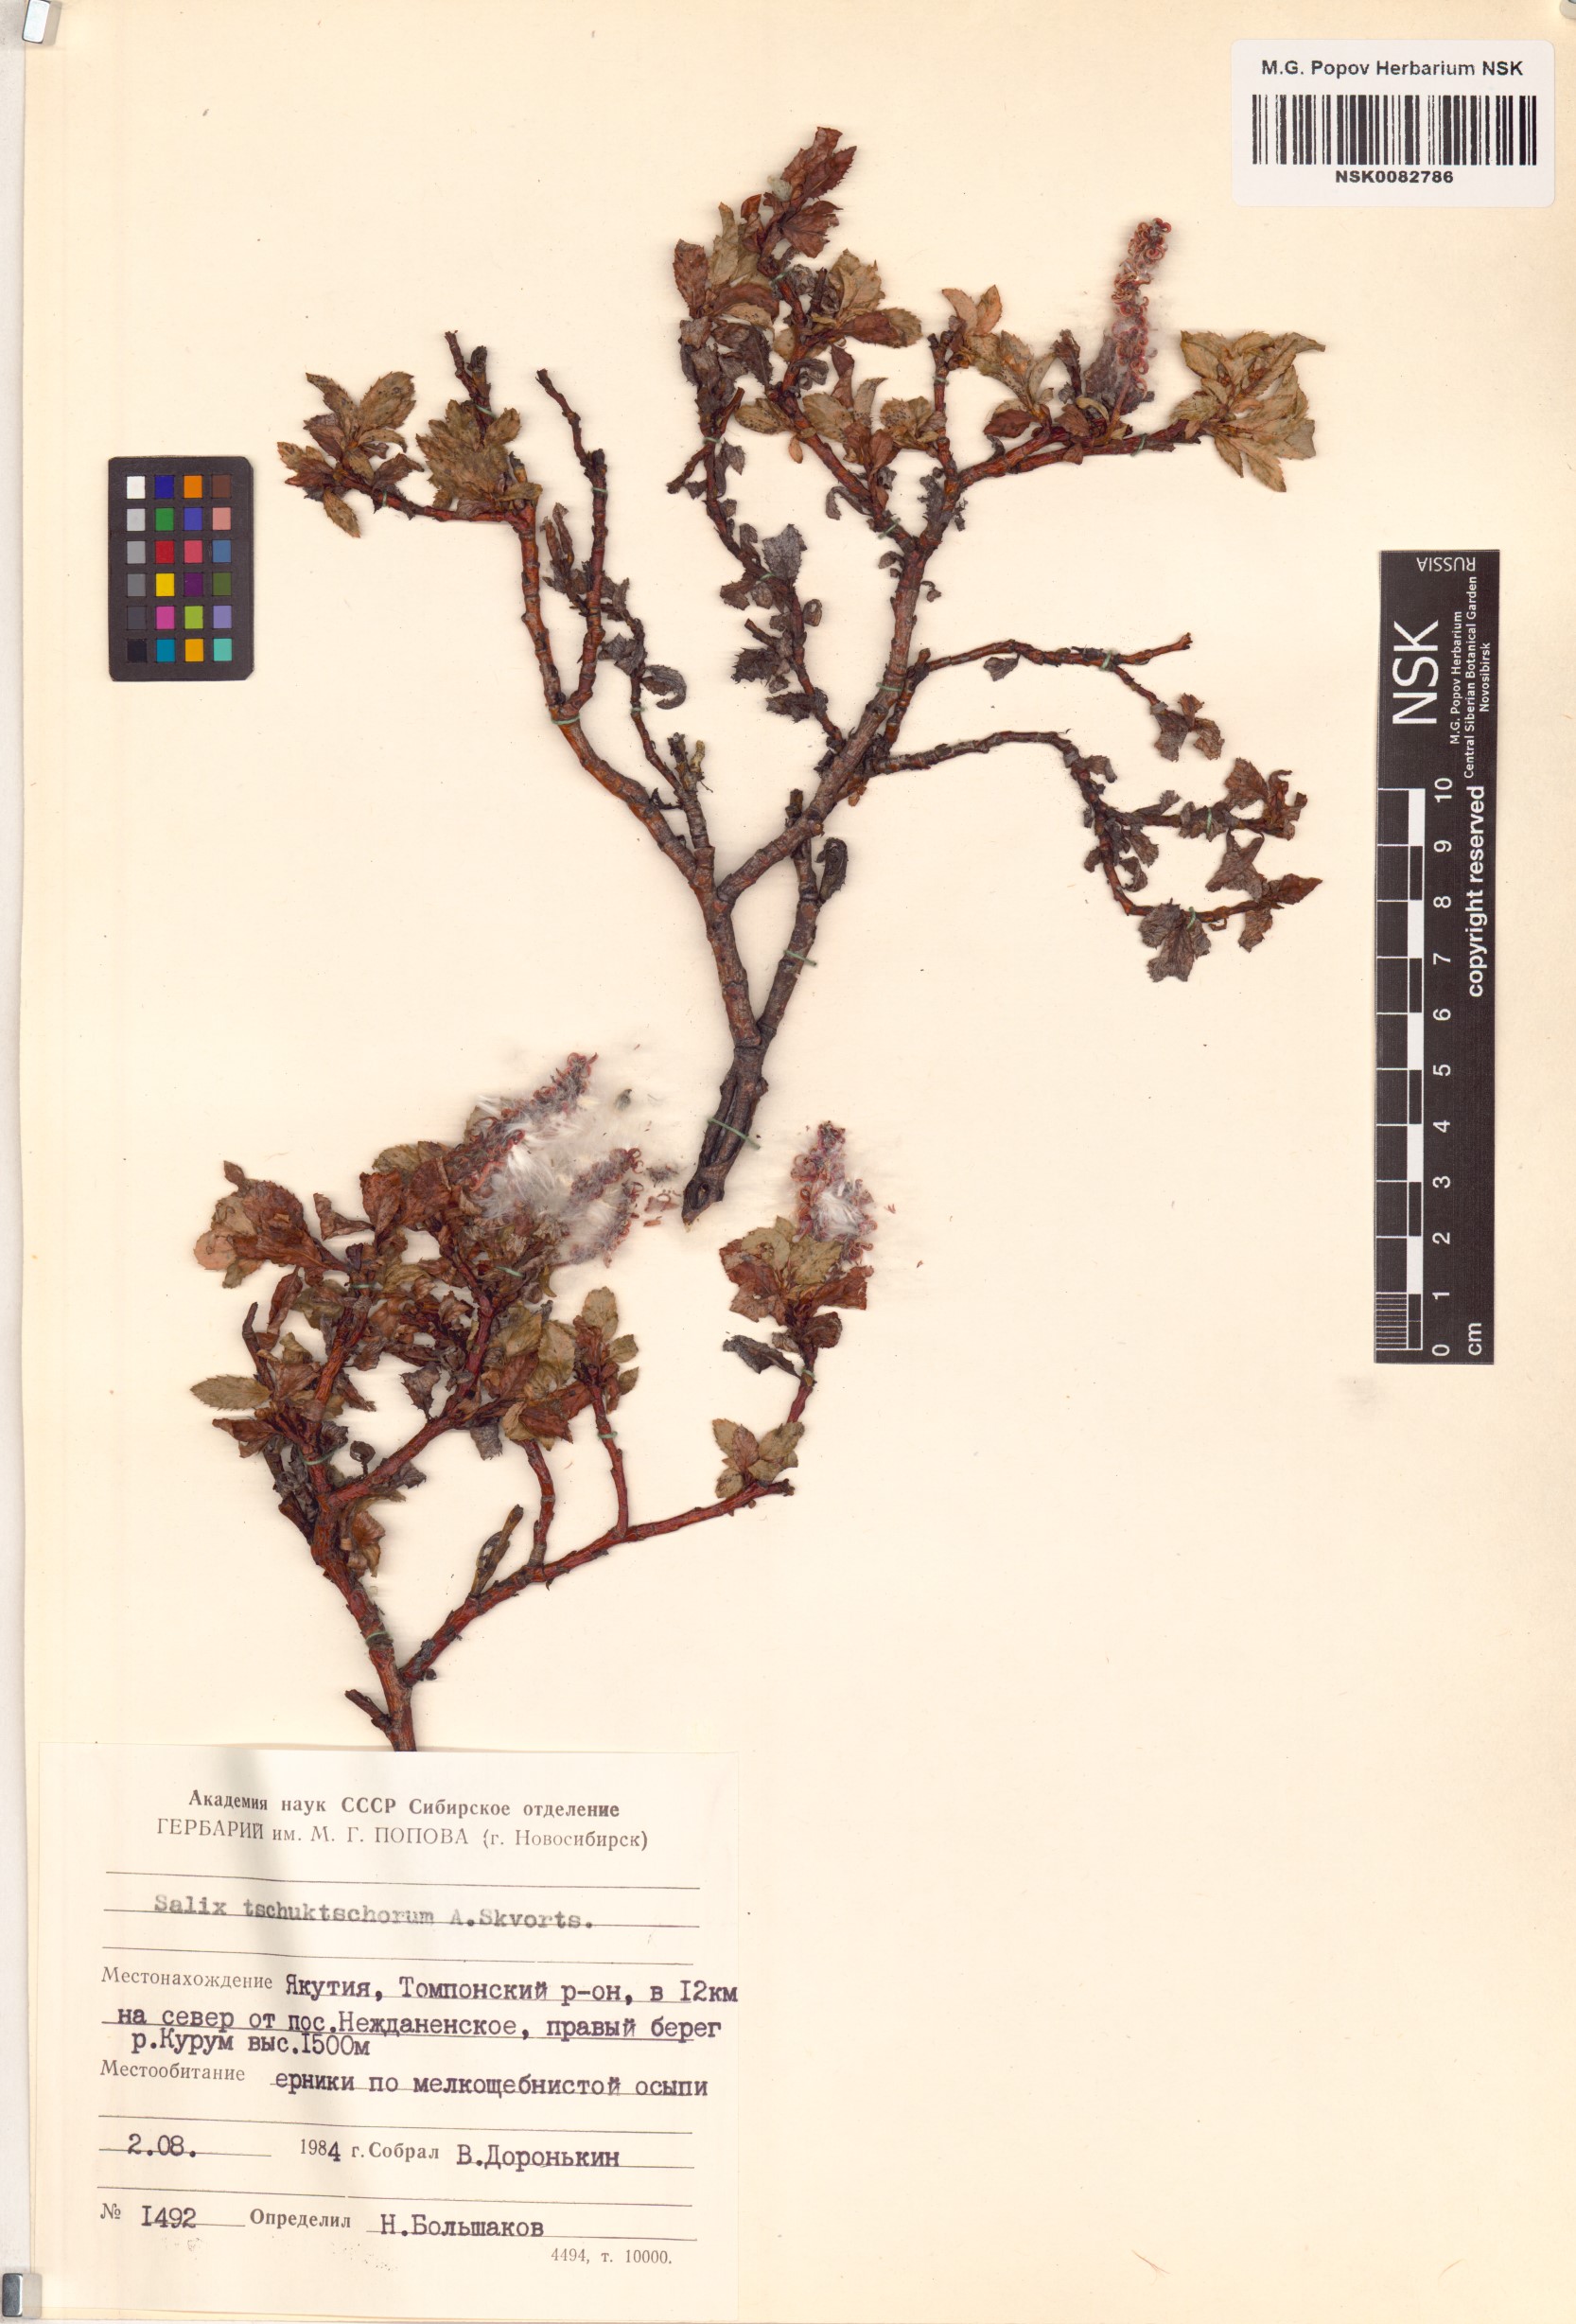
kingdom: Plantae
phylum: Tracheophyta
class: Magnoliopsida
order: Malpighiales
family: Salicaceae
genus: Salix
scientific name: Salix tschuktschorum
